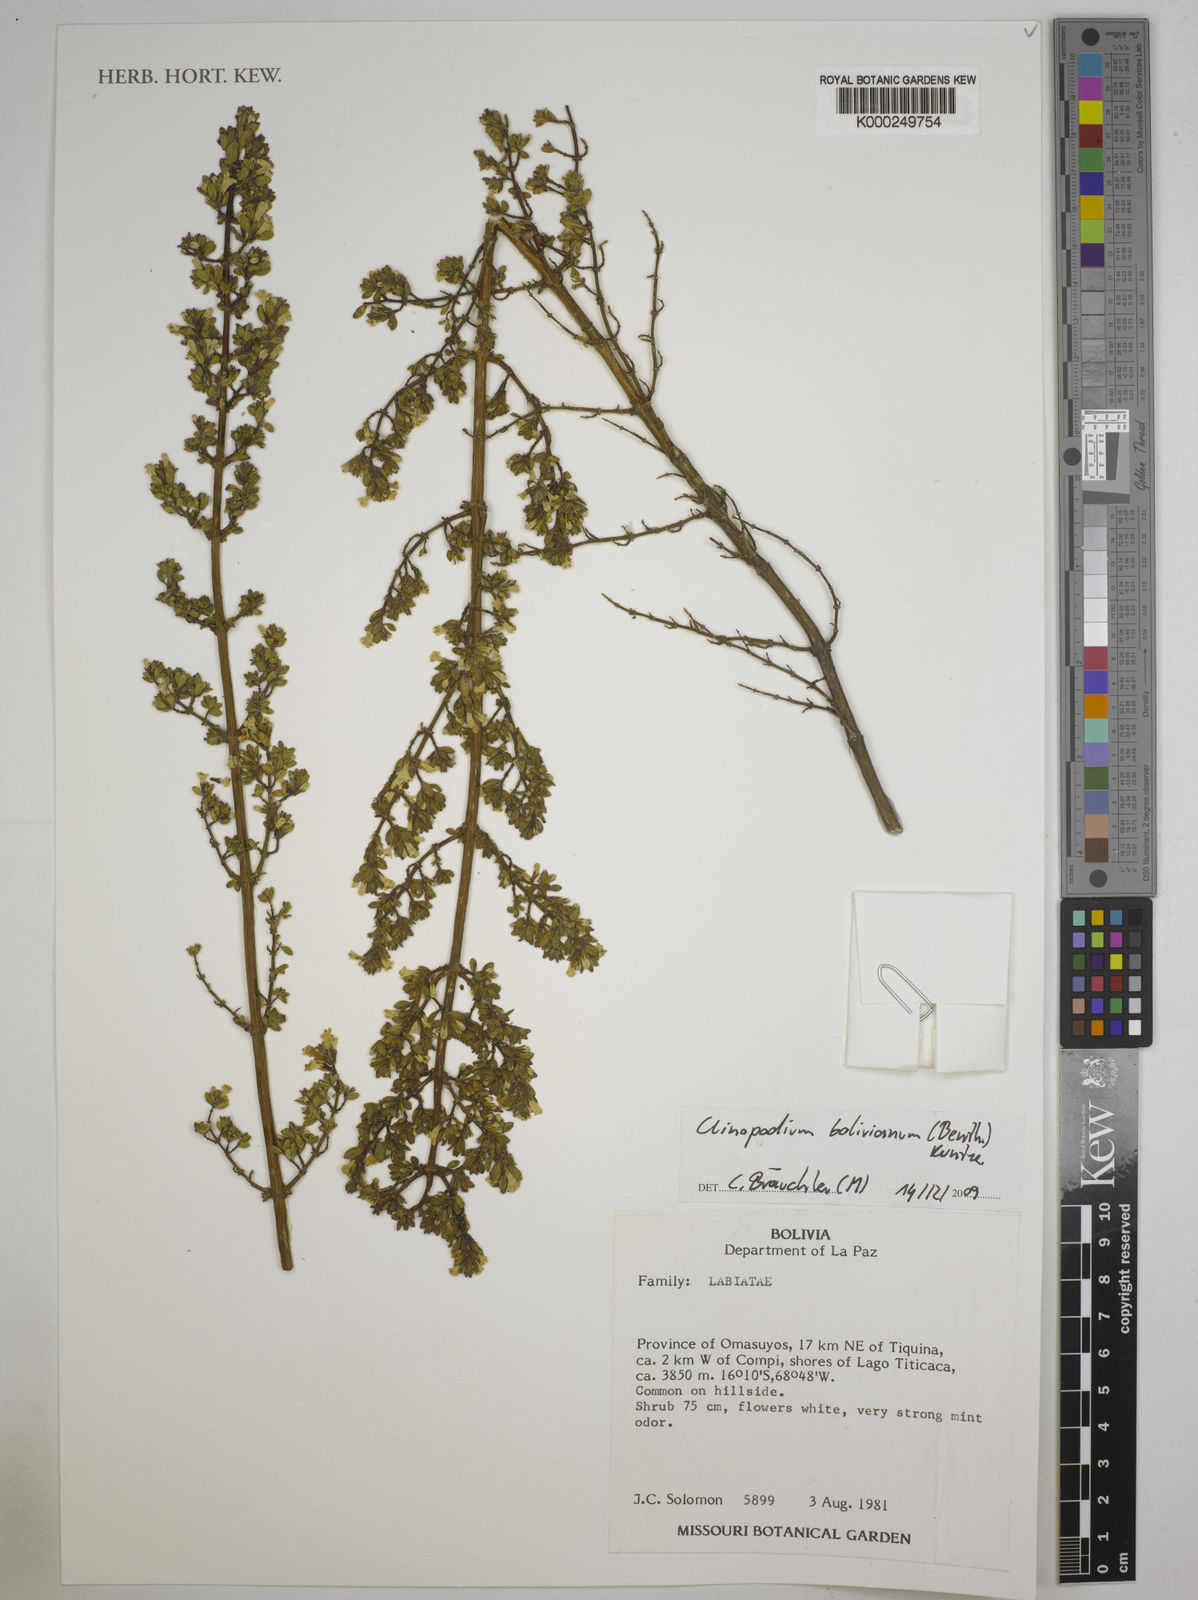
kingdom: Plantae
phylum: Tracheophyta
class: Magnoliopsida
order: Lamiales
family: Lamiaceae
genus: Clinopodium
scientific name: Clinopodium bolivianum
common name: Inca muña
